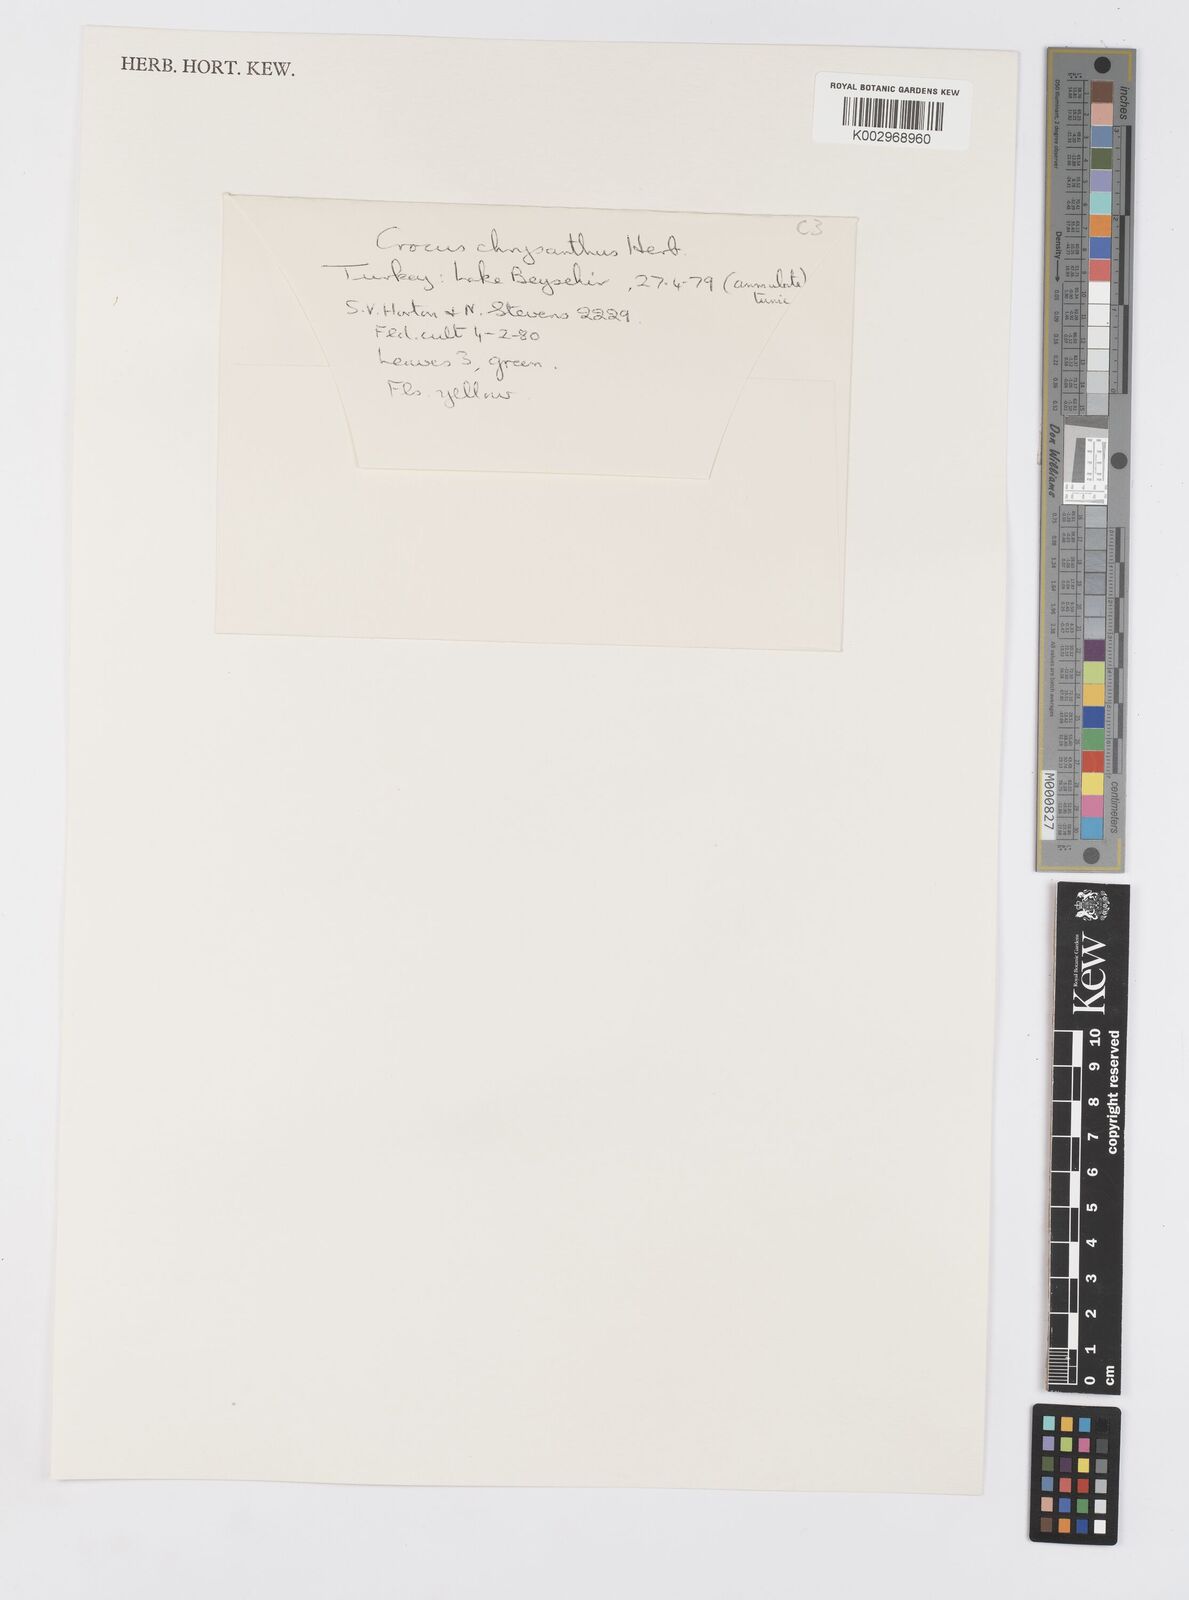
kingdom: Plantae
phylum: Tracheophyta
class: Liliopsida
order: Asparagales
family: Iridaceae
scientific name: Iridaceae
